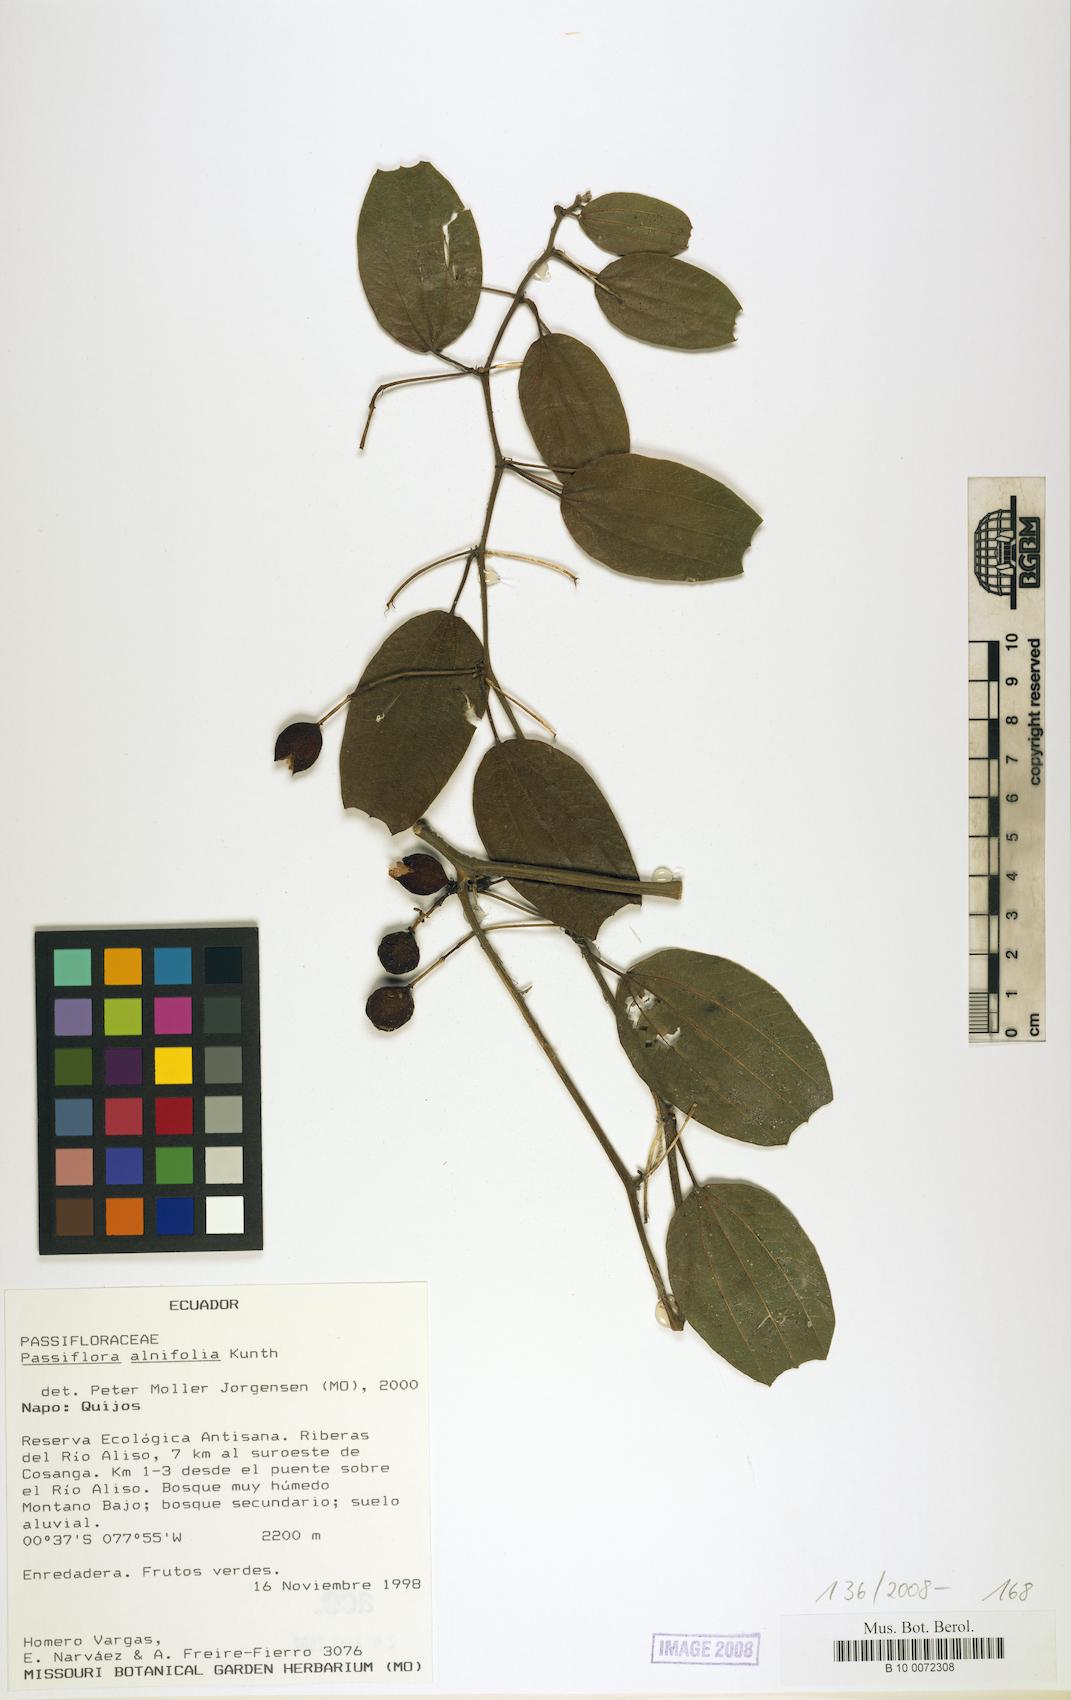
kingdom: Plantae
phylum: Tracheophyta
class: Magnoliopsida
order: Malpighiales
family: Passifloraceae
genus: Passiflora
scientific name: Passiflora alnifolia
